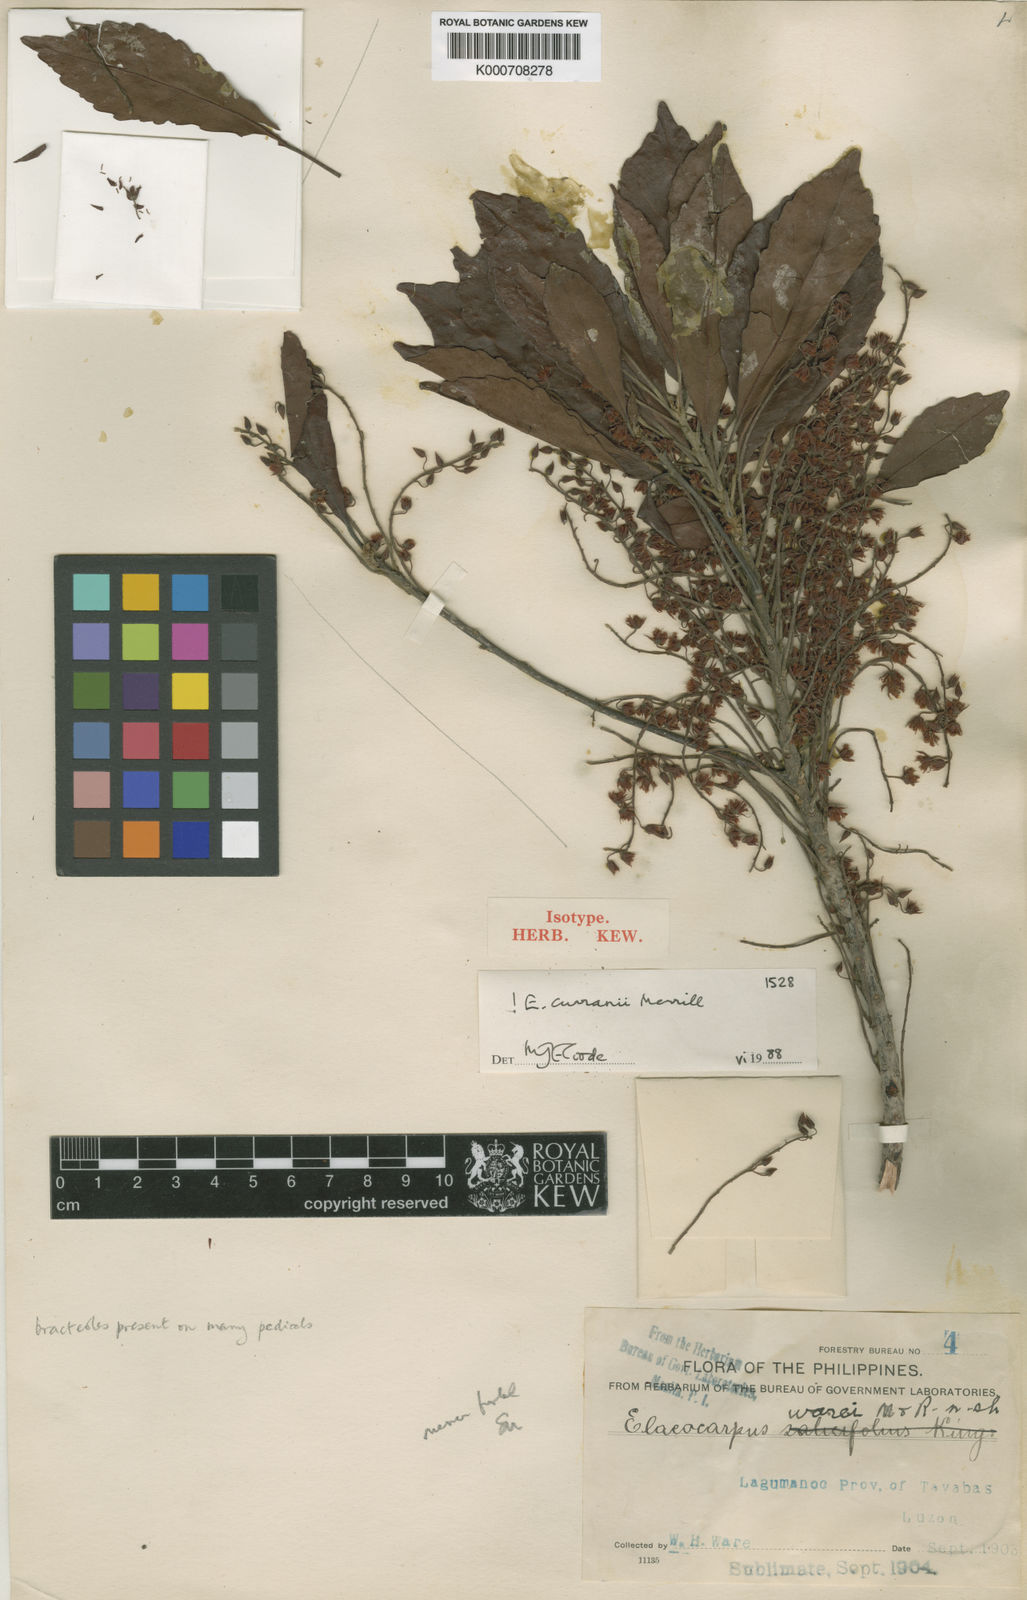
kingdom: Plantae
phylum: Tracheophyta
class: Magnoliopsida
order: Oxalidales
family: Elaeocarpaceae
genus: Elaeocarpus
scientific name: Elaeocarpus curranii
